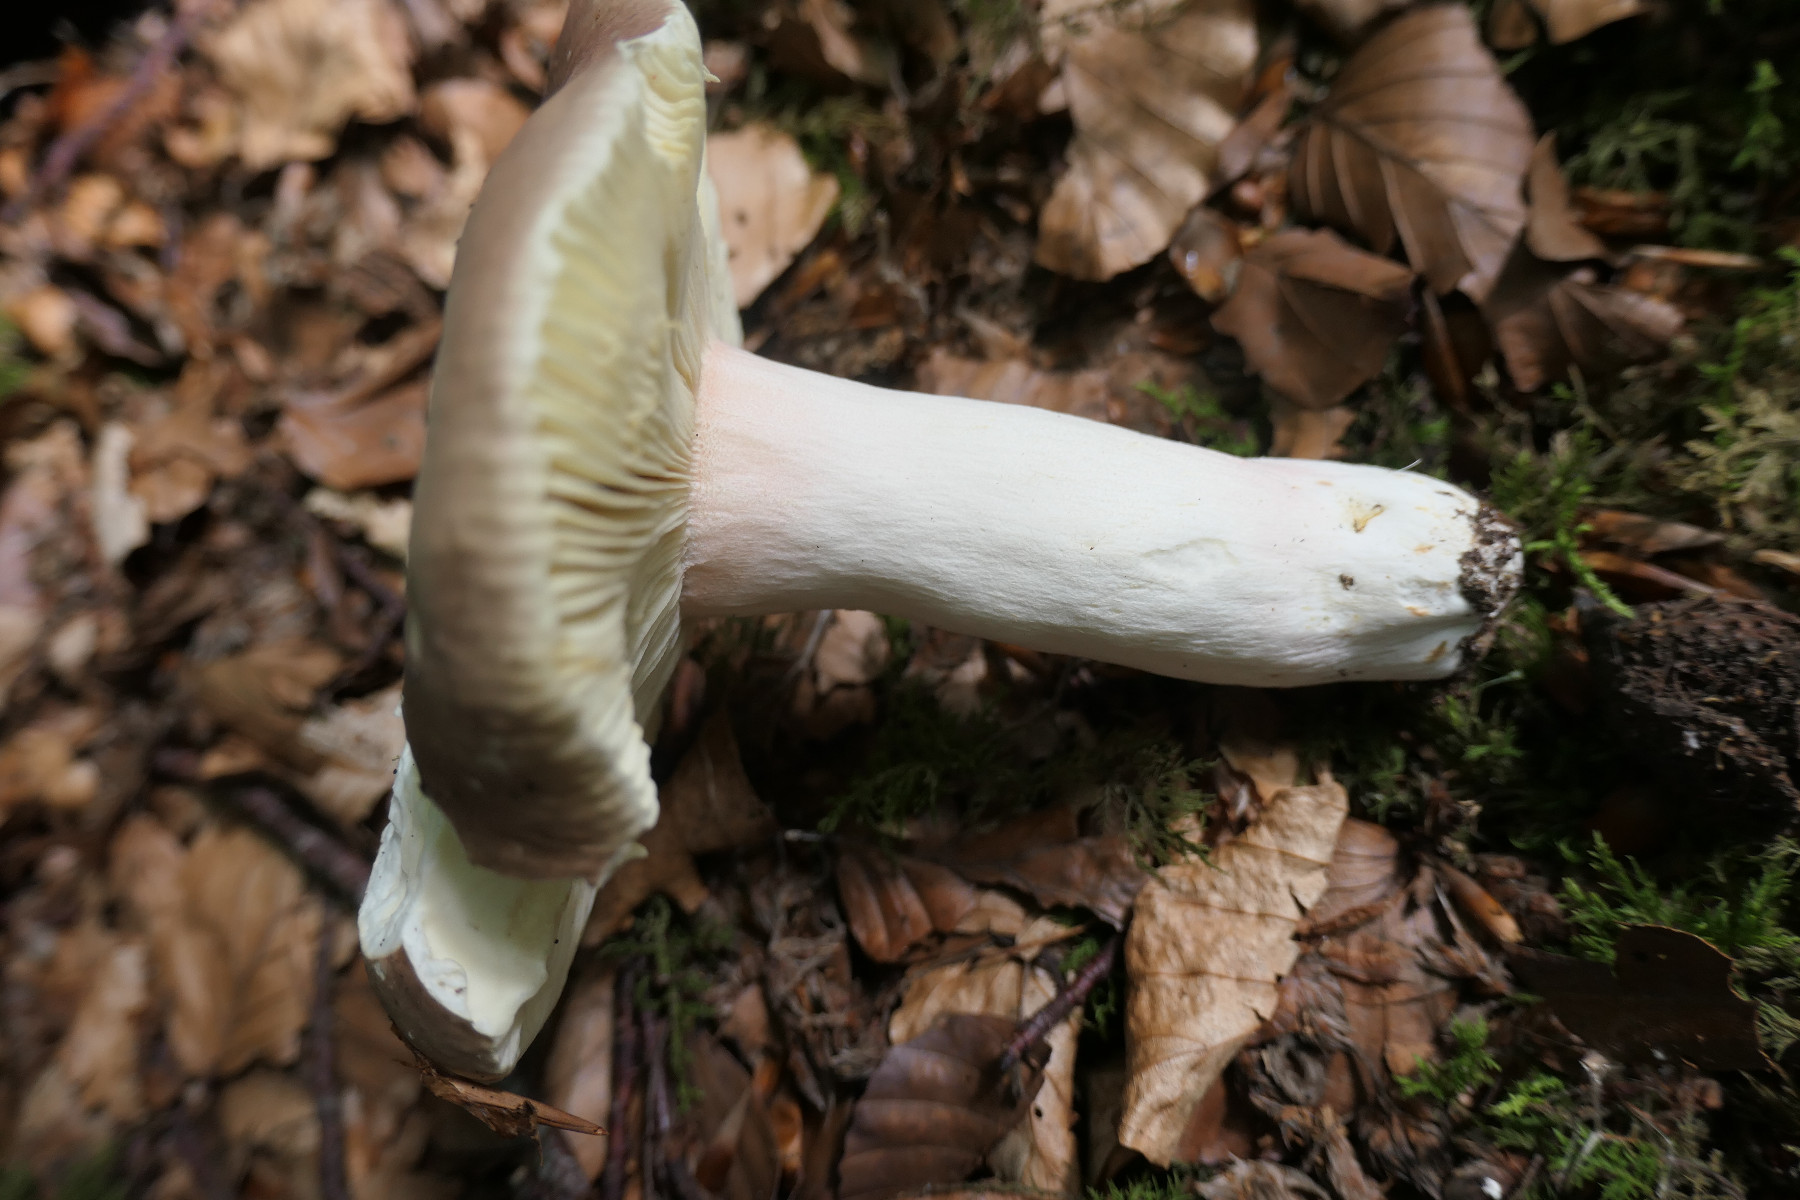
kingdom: Fungi
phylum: Basidiomycota
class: Agaricomycetes
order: Russulales
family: Russulaceae
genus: Russula
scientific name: Russula olivacea
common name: stor skørhat
